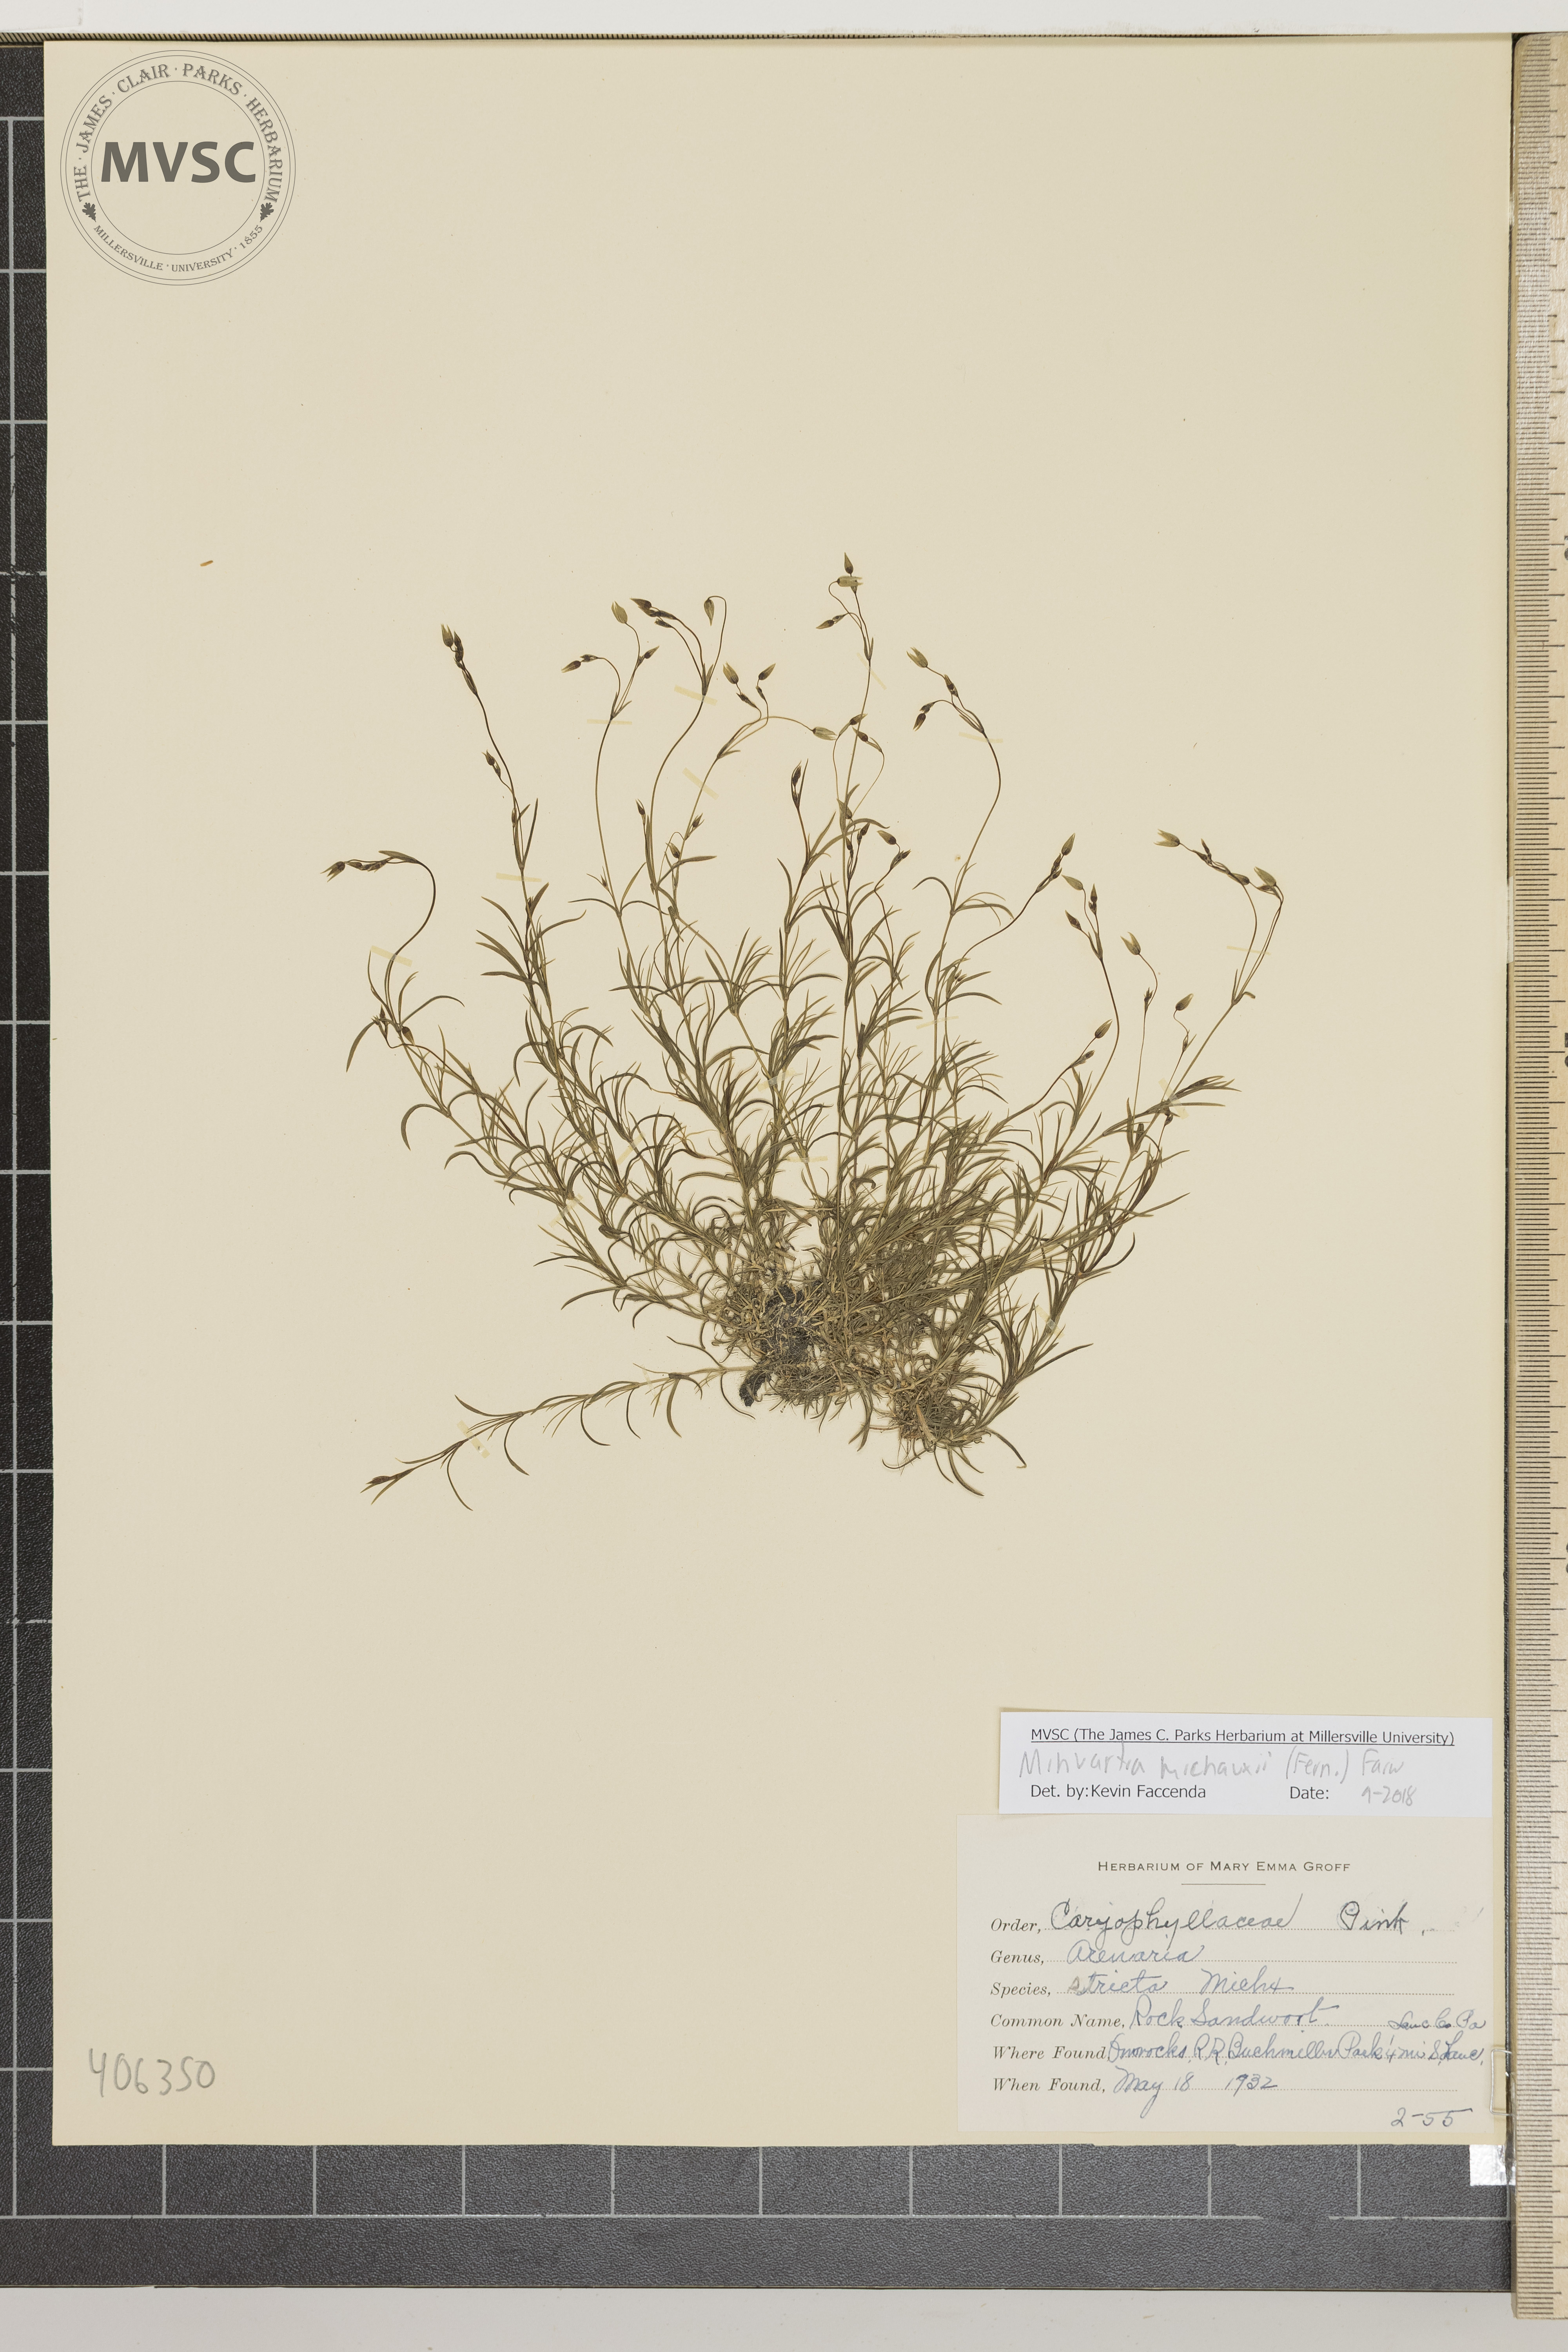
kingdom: Plantae
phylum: Tracheophyta
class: Magnoliopsida
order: Caryophyllales
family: Caryophyllaceae
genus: Sabulina
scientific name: Sabulina michauxii
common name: Rock Sandwort
